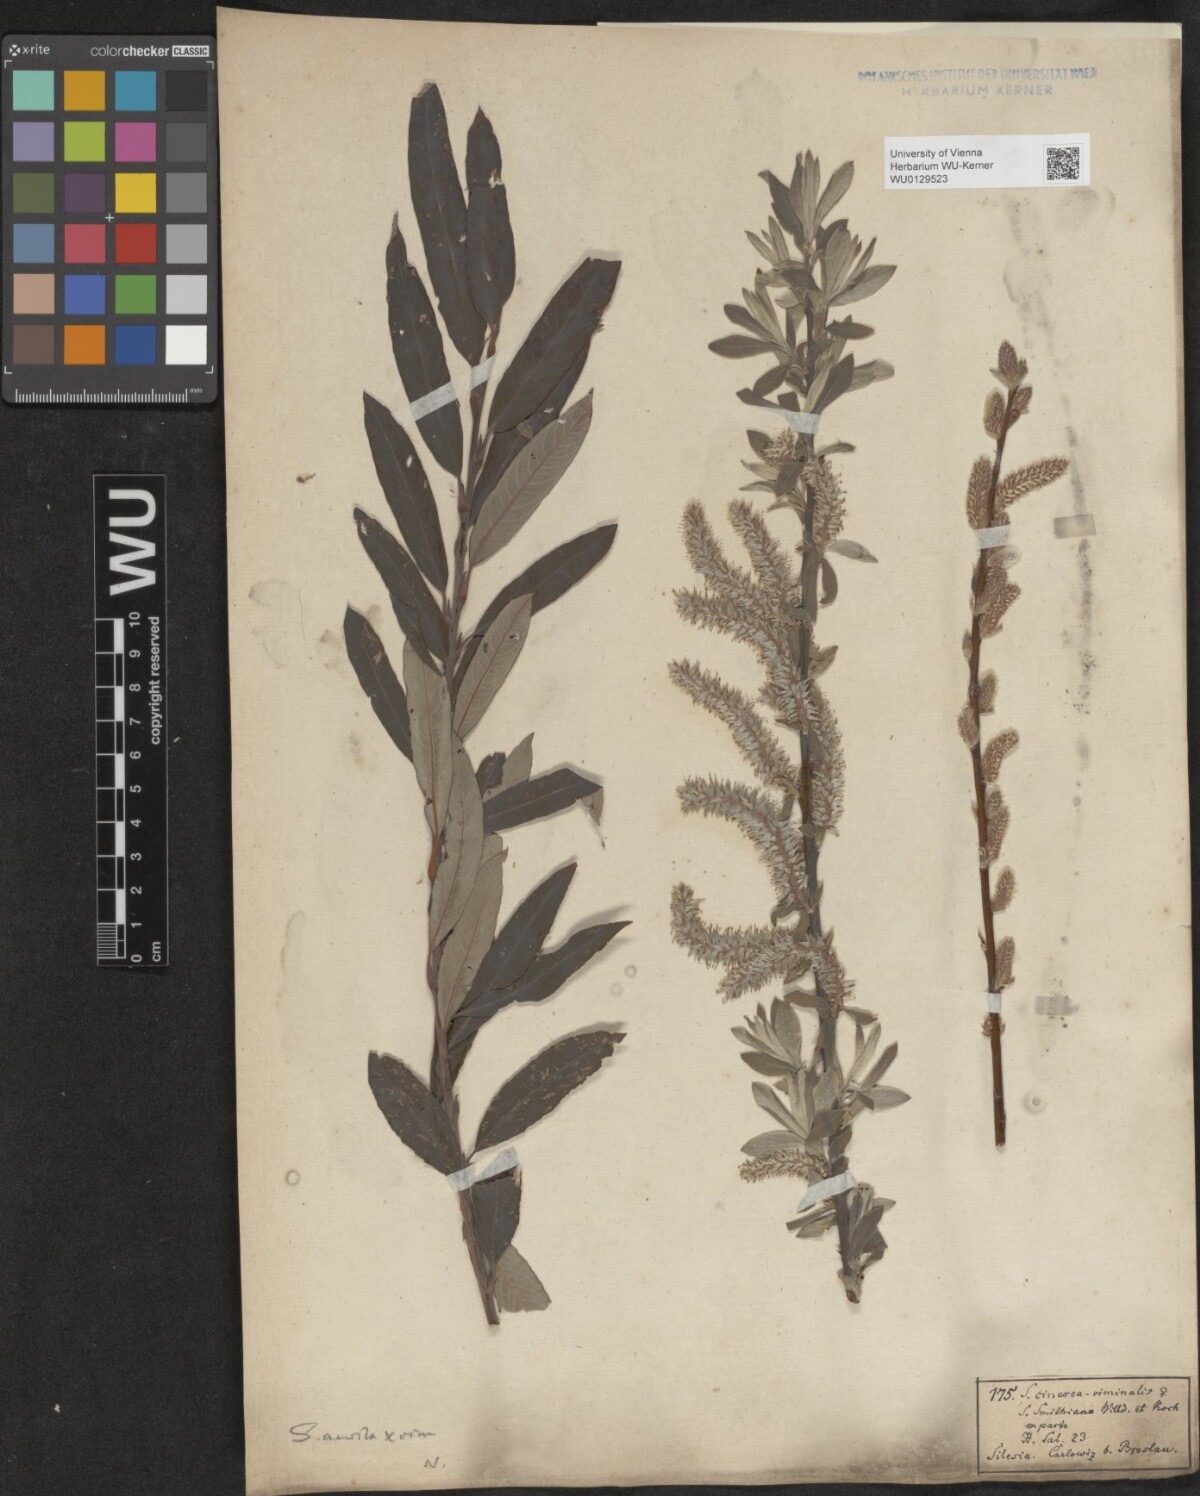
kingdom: Plantae
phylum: Tracheophyta
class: Magnoliopsida
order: Malpighiales
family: Salicaceae
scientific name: Salicaceae
